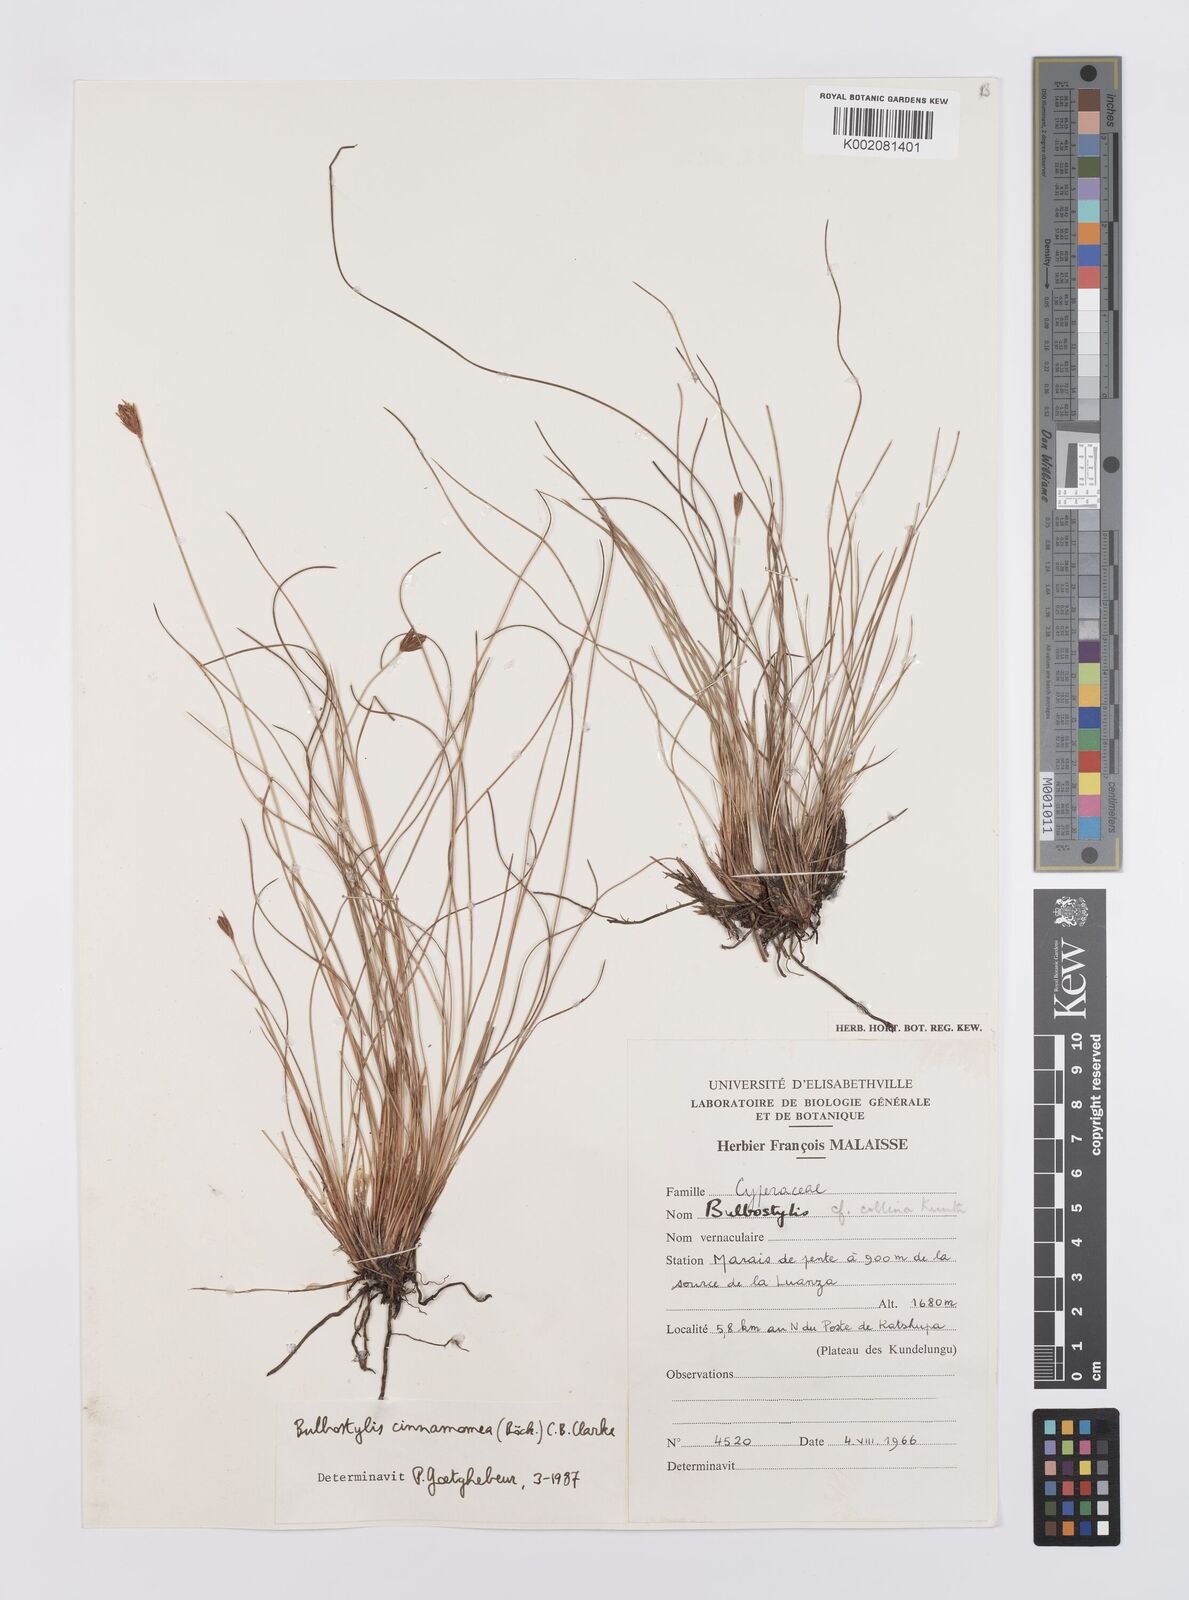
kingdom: Plantae
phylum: Tracheophyta
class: Liliopsida
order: Poales
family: Cyperaceae
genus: Bulbostylis
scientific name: Bulbostylis schoenoides
